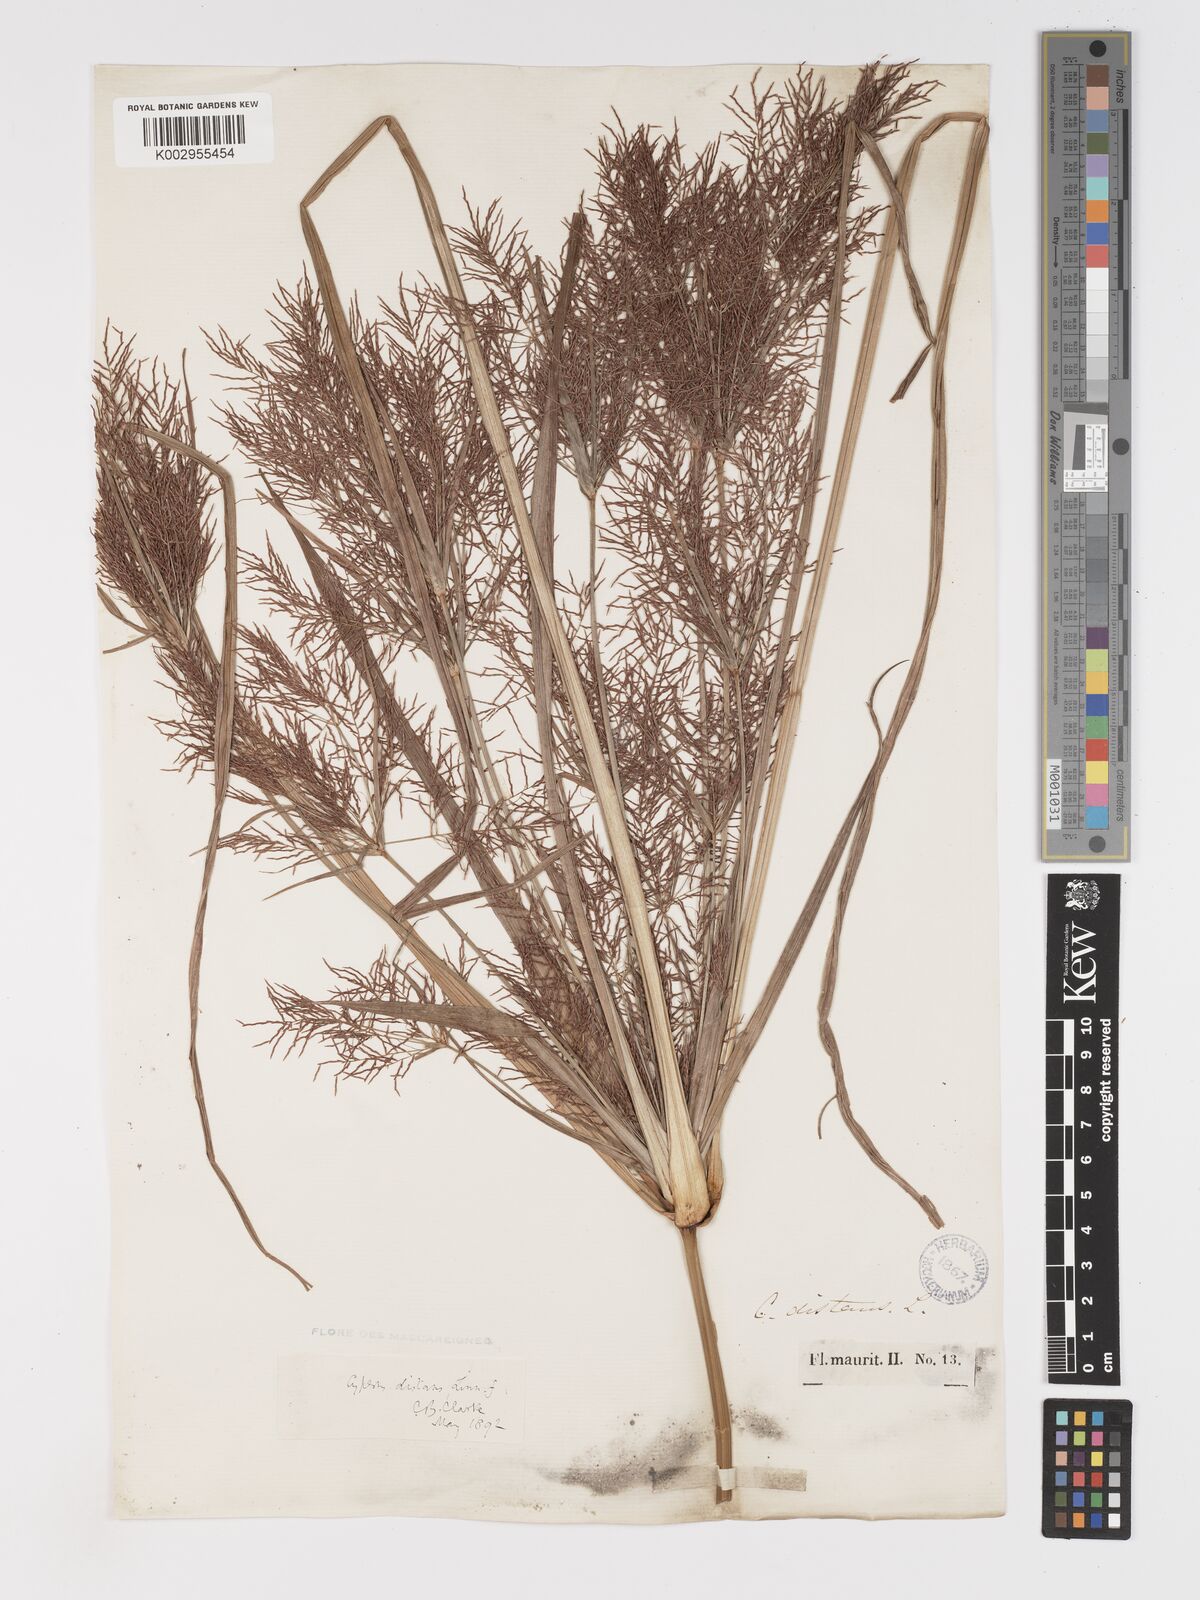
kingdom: Plantae
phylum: Tracheophyta
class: Liliopsida
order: Poales
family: Cyperaceae
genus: Cyperus
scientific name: Cyperus distans
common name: Slender cyperus
